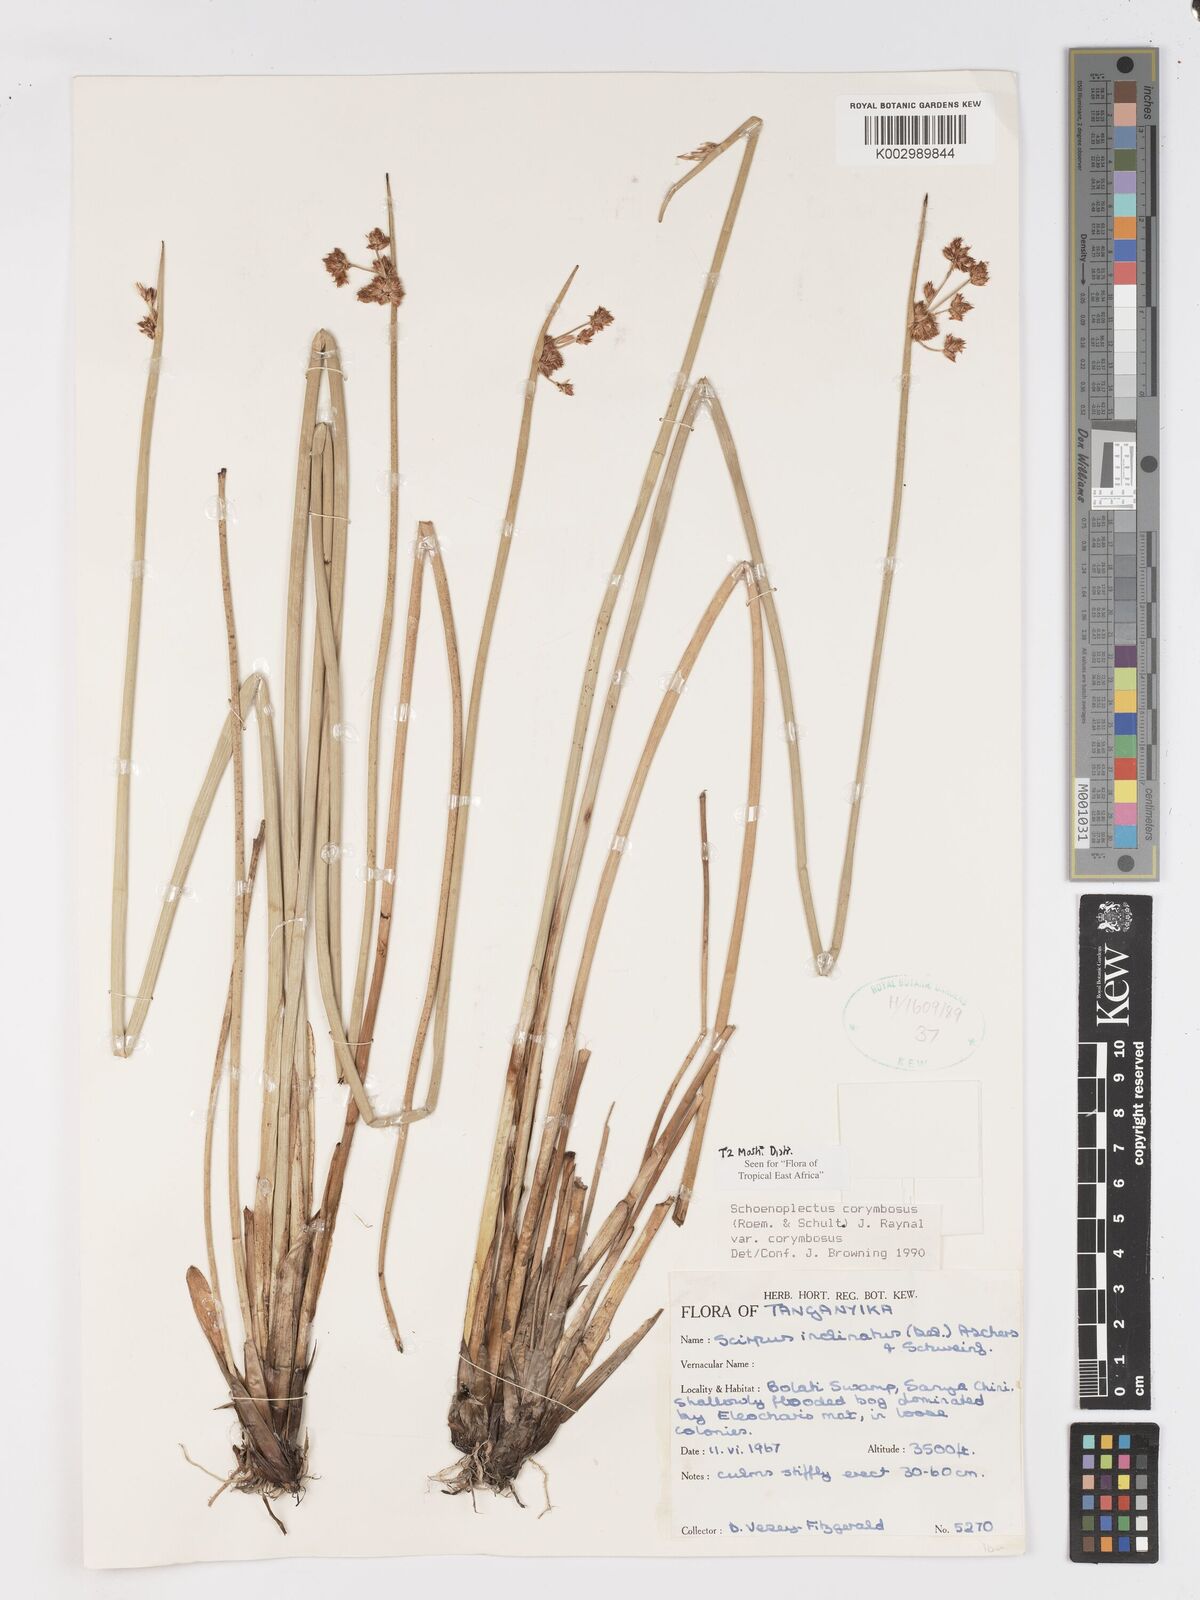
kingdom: Plantae
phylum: Tracheophyta
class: Liliopsida
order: Poales
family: Cyperaceae
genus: Schoenoplectiella
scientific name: Schoenoplectiella corymbosa
